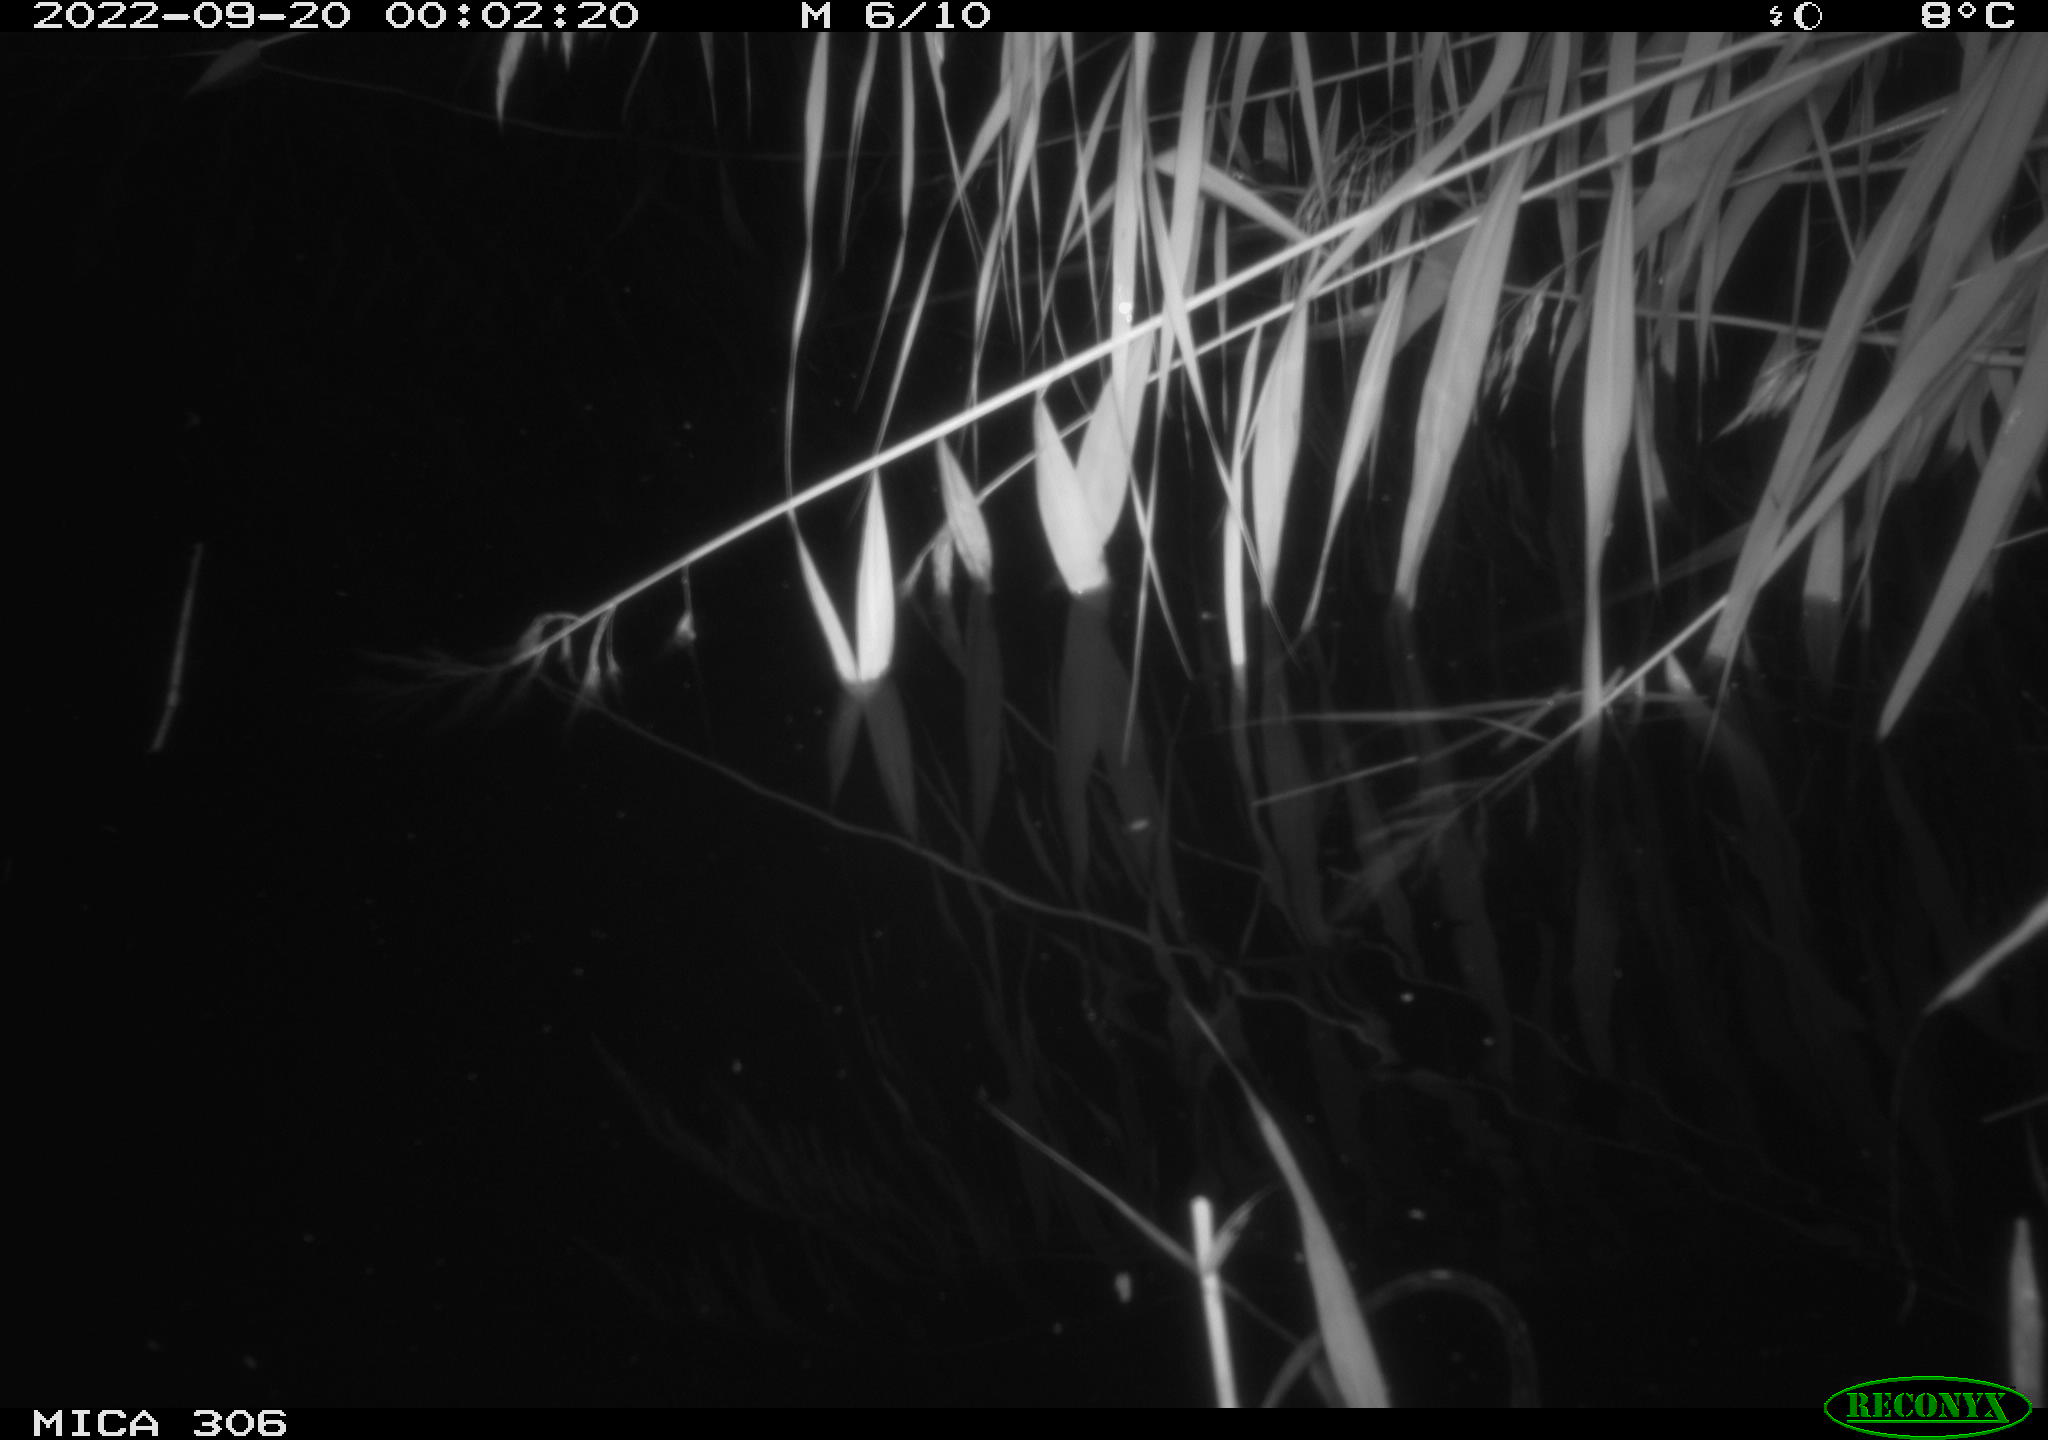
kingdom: Animalia
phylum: Chordata
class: Mammalia
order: Rodentia
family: Muridae
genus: Rattus
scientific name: Rattus norvegicus
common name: Brown rat
